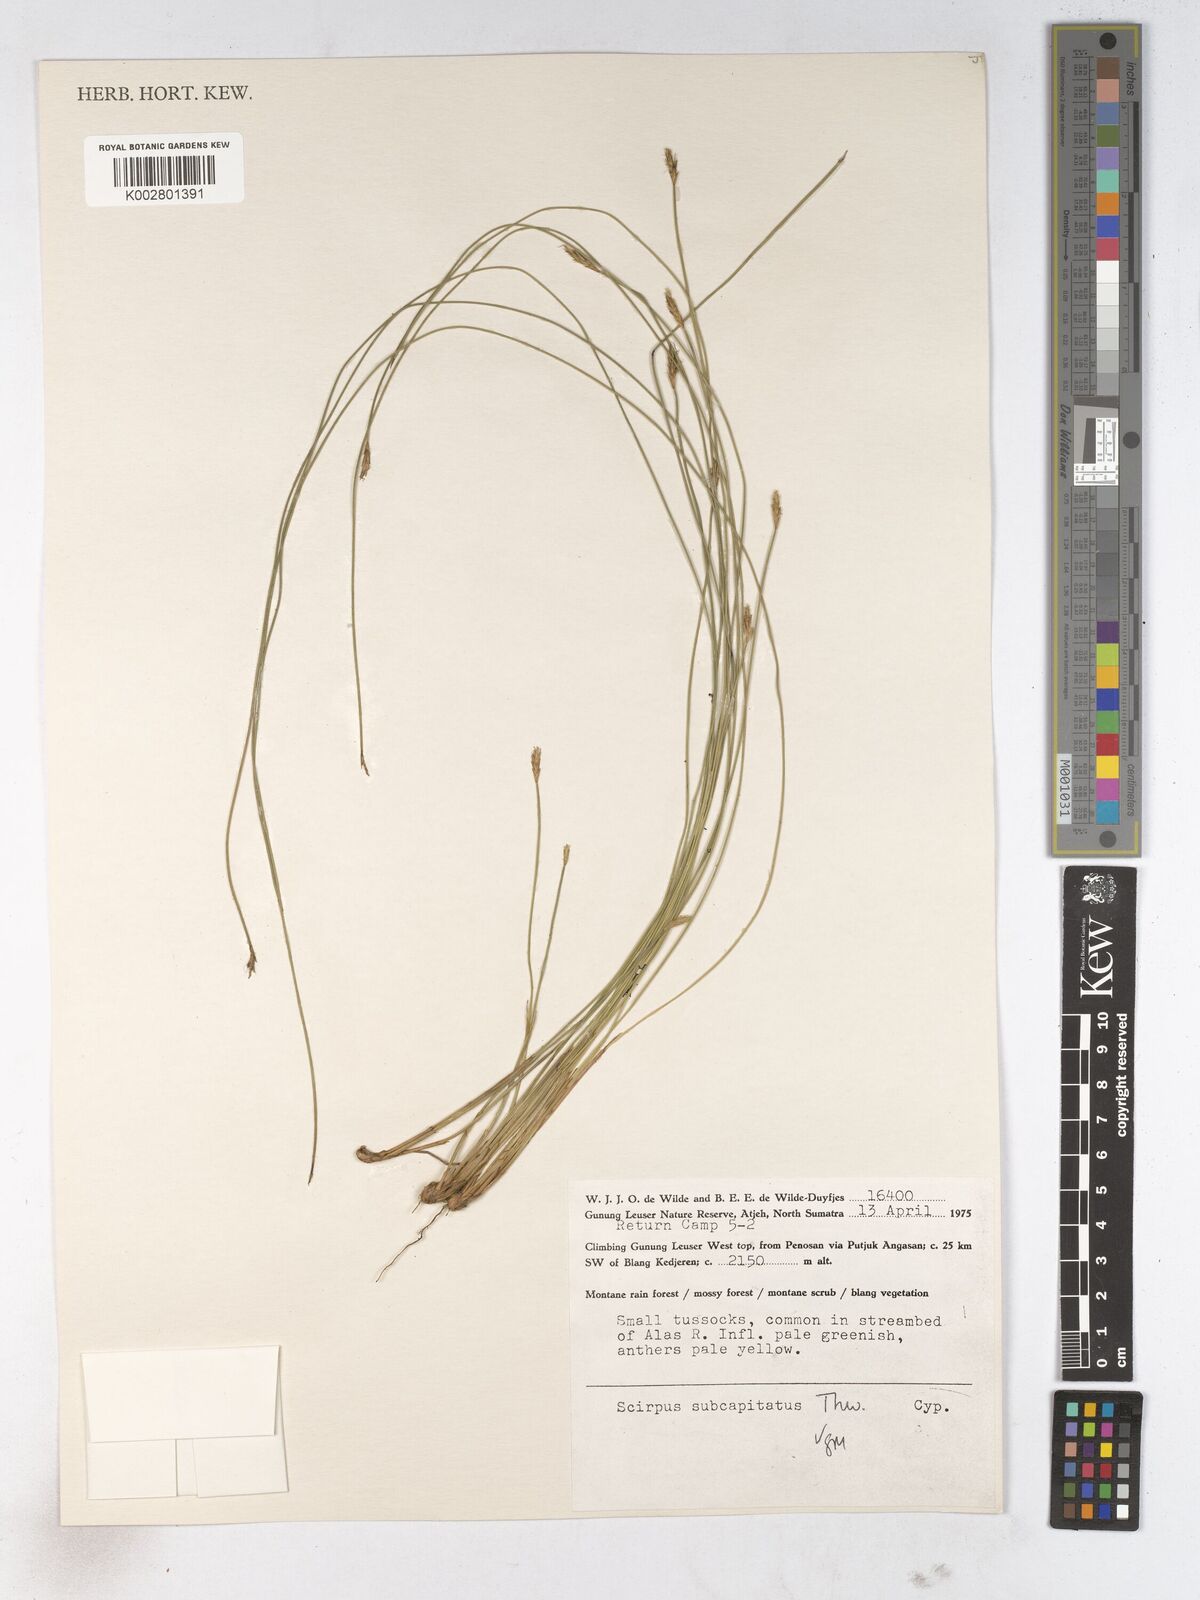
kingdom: Plantae
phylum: Tracheophyta
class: Liliopsida
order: Poales
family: Cyperaceae
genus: Trichophorum
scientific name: Trichophorum subcapitatum
